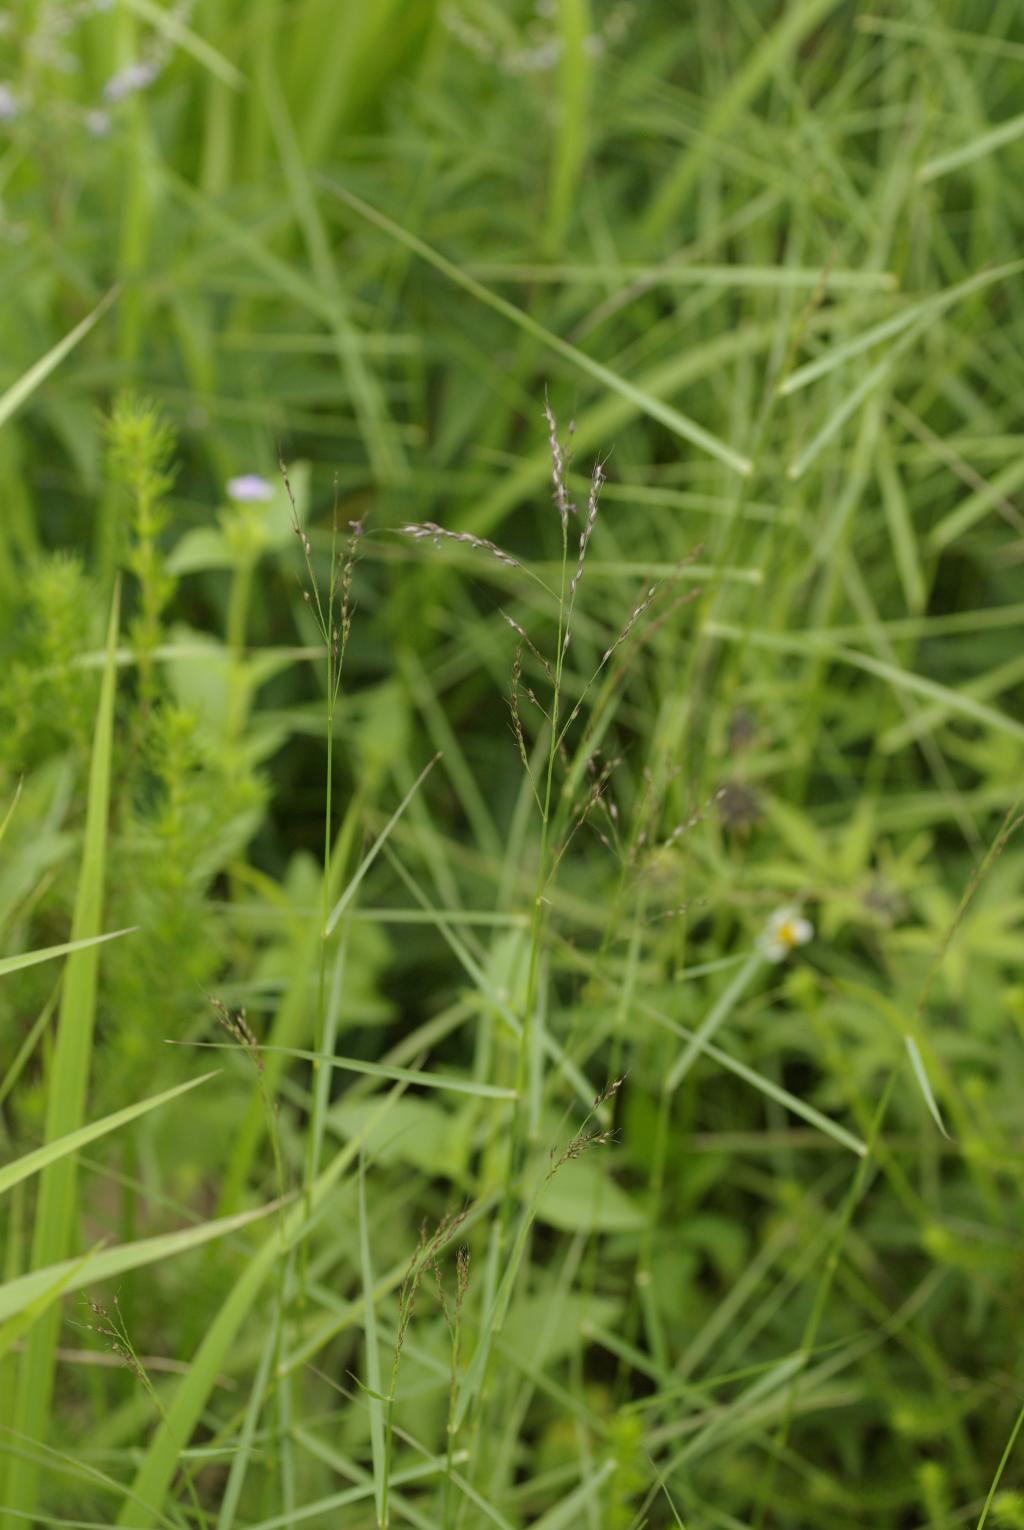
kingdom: Plantae
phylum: Tracheophyta
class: Liliopsida
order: Poales
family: Poaceae
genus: Arundinella
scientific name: Arundinella setosa
